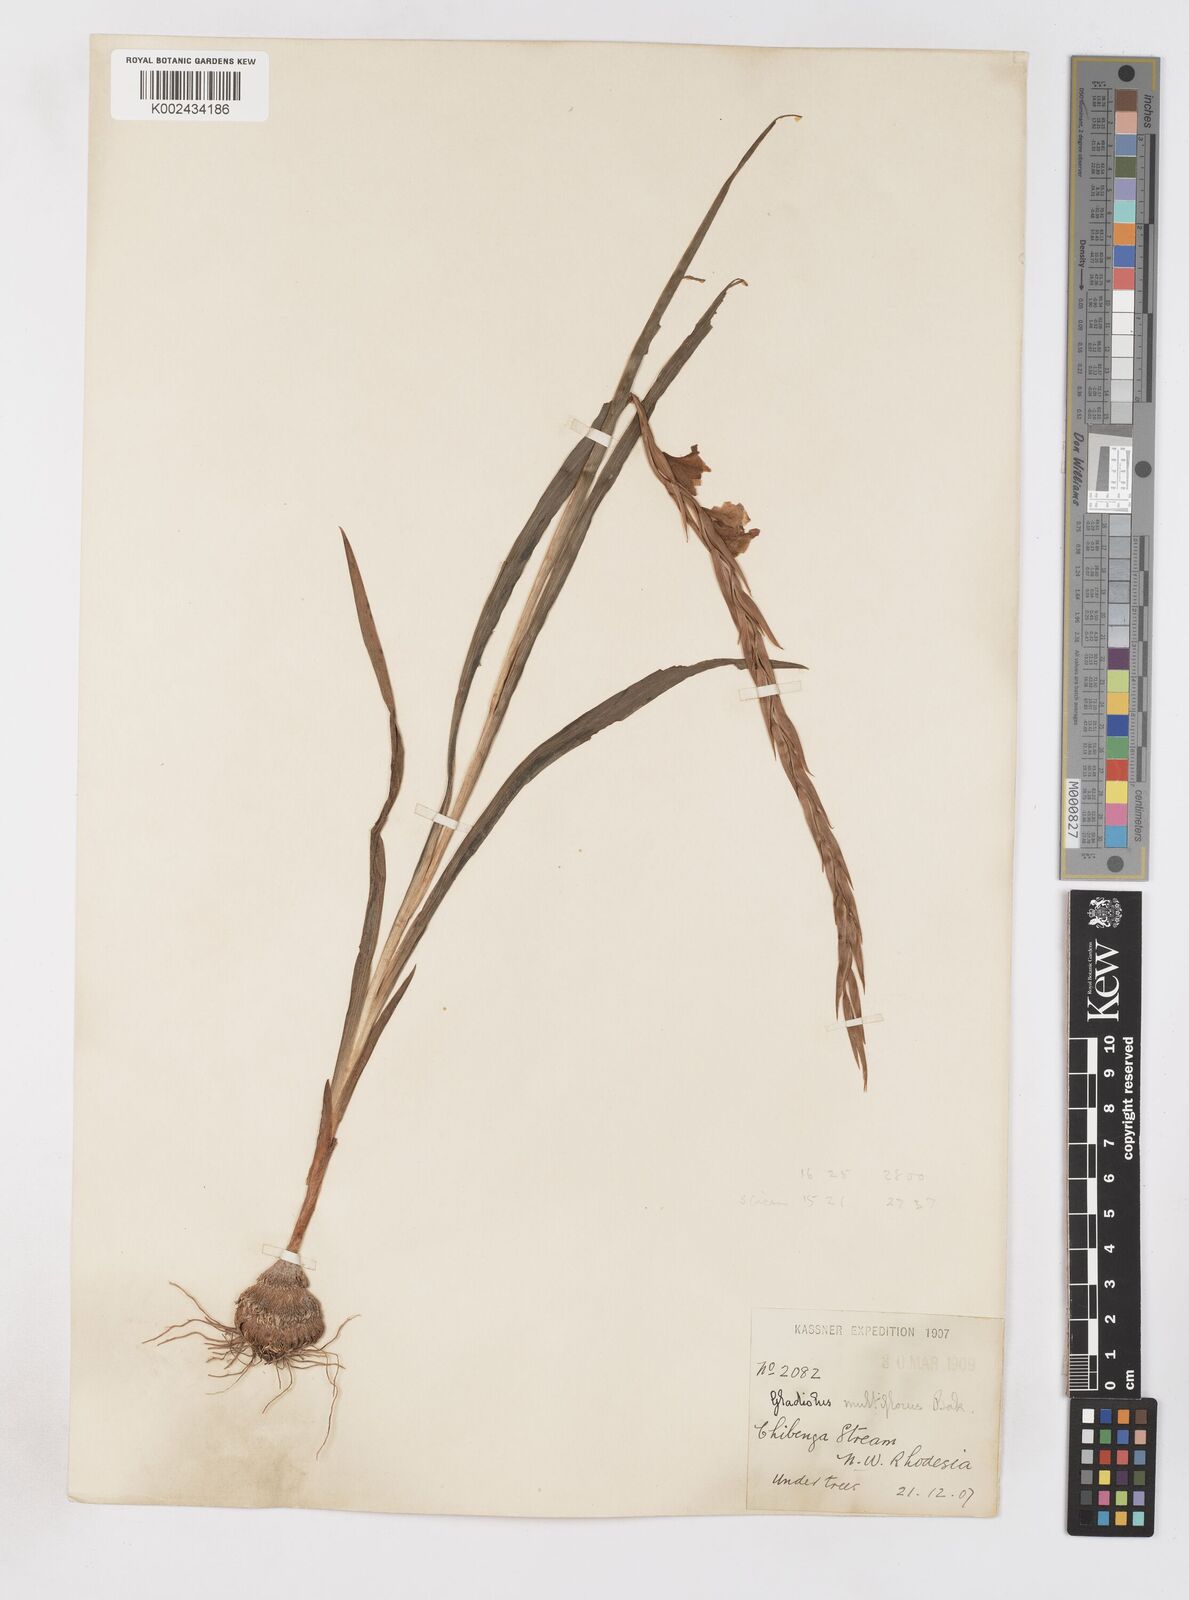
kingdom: Plantae
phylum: Tracheophyta
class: Liliopsida
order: Asparagales
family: Iridaceae
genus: Gladiolus
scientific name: Gladiolus gregarius
